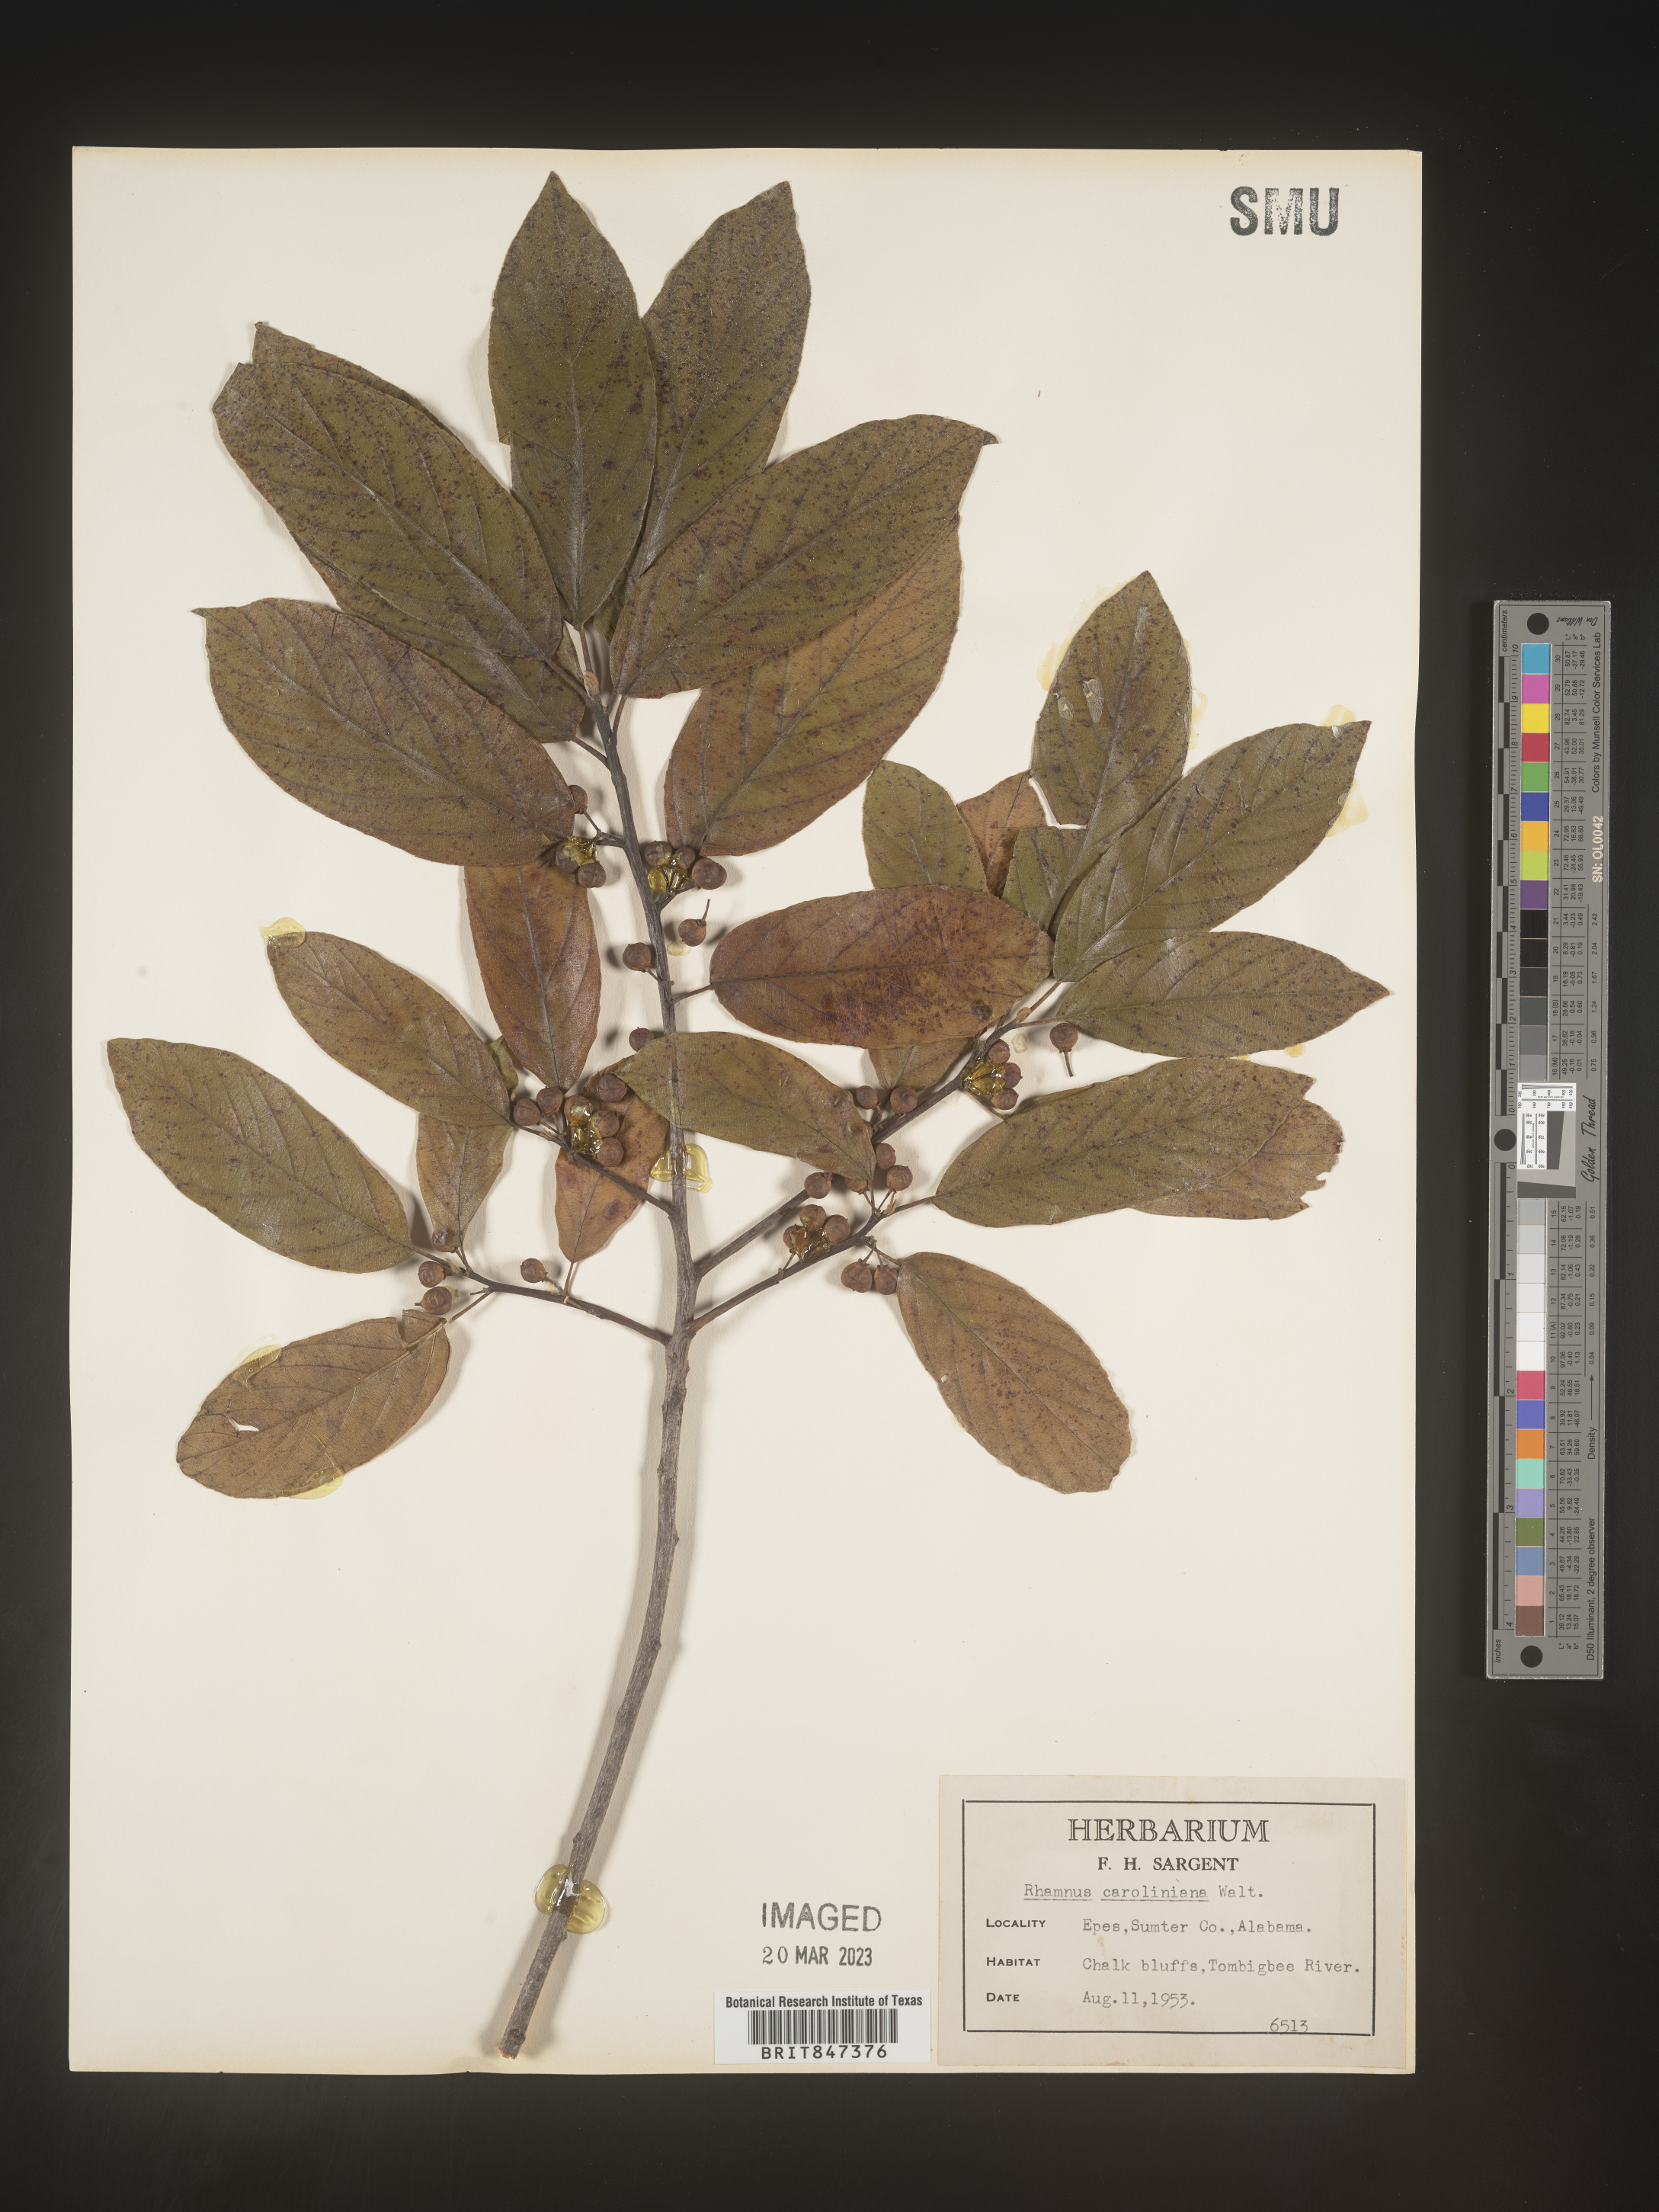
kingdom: Plantae
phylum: Tracheophyta
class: Magnoliopsida
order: Rosales
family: Rhamnaceae
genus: Frangula
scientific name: Frangula caroliniana
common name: Carolina buckthorn
